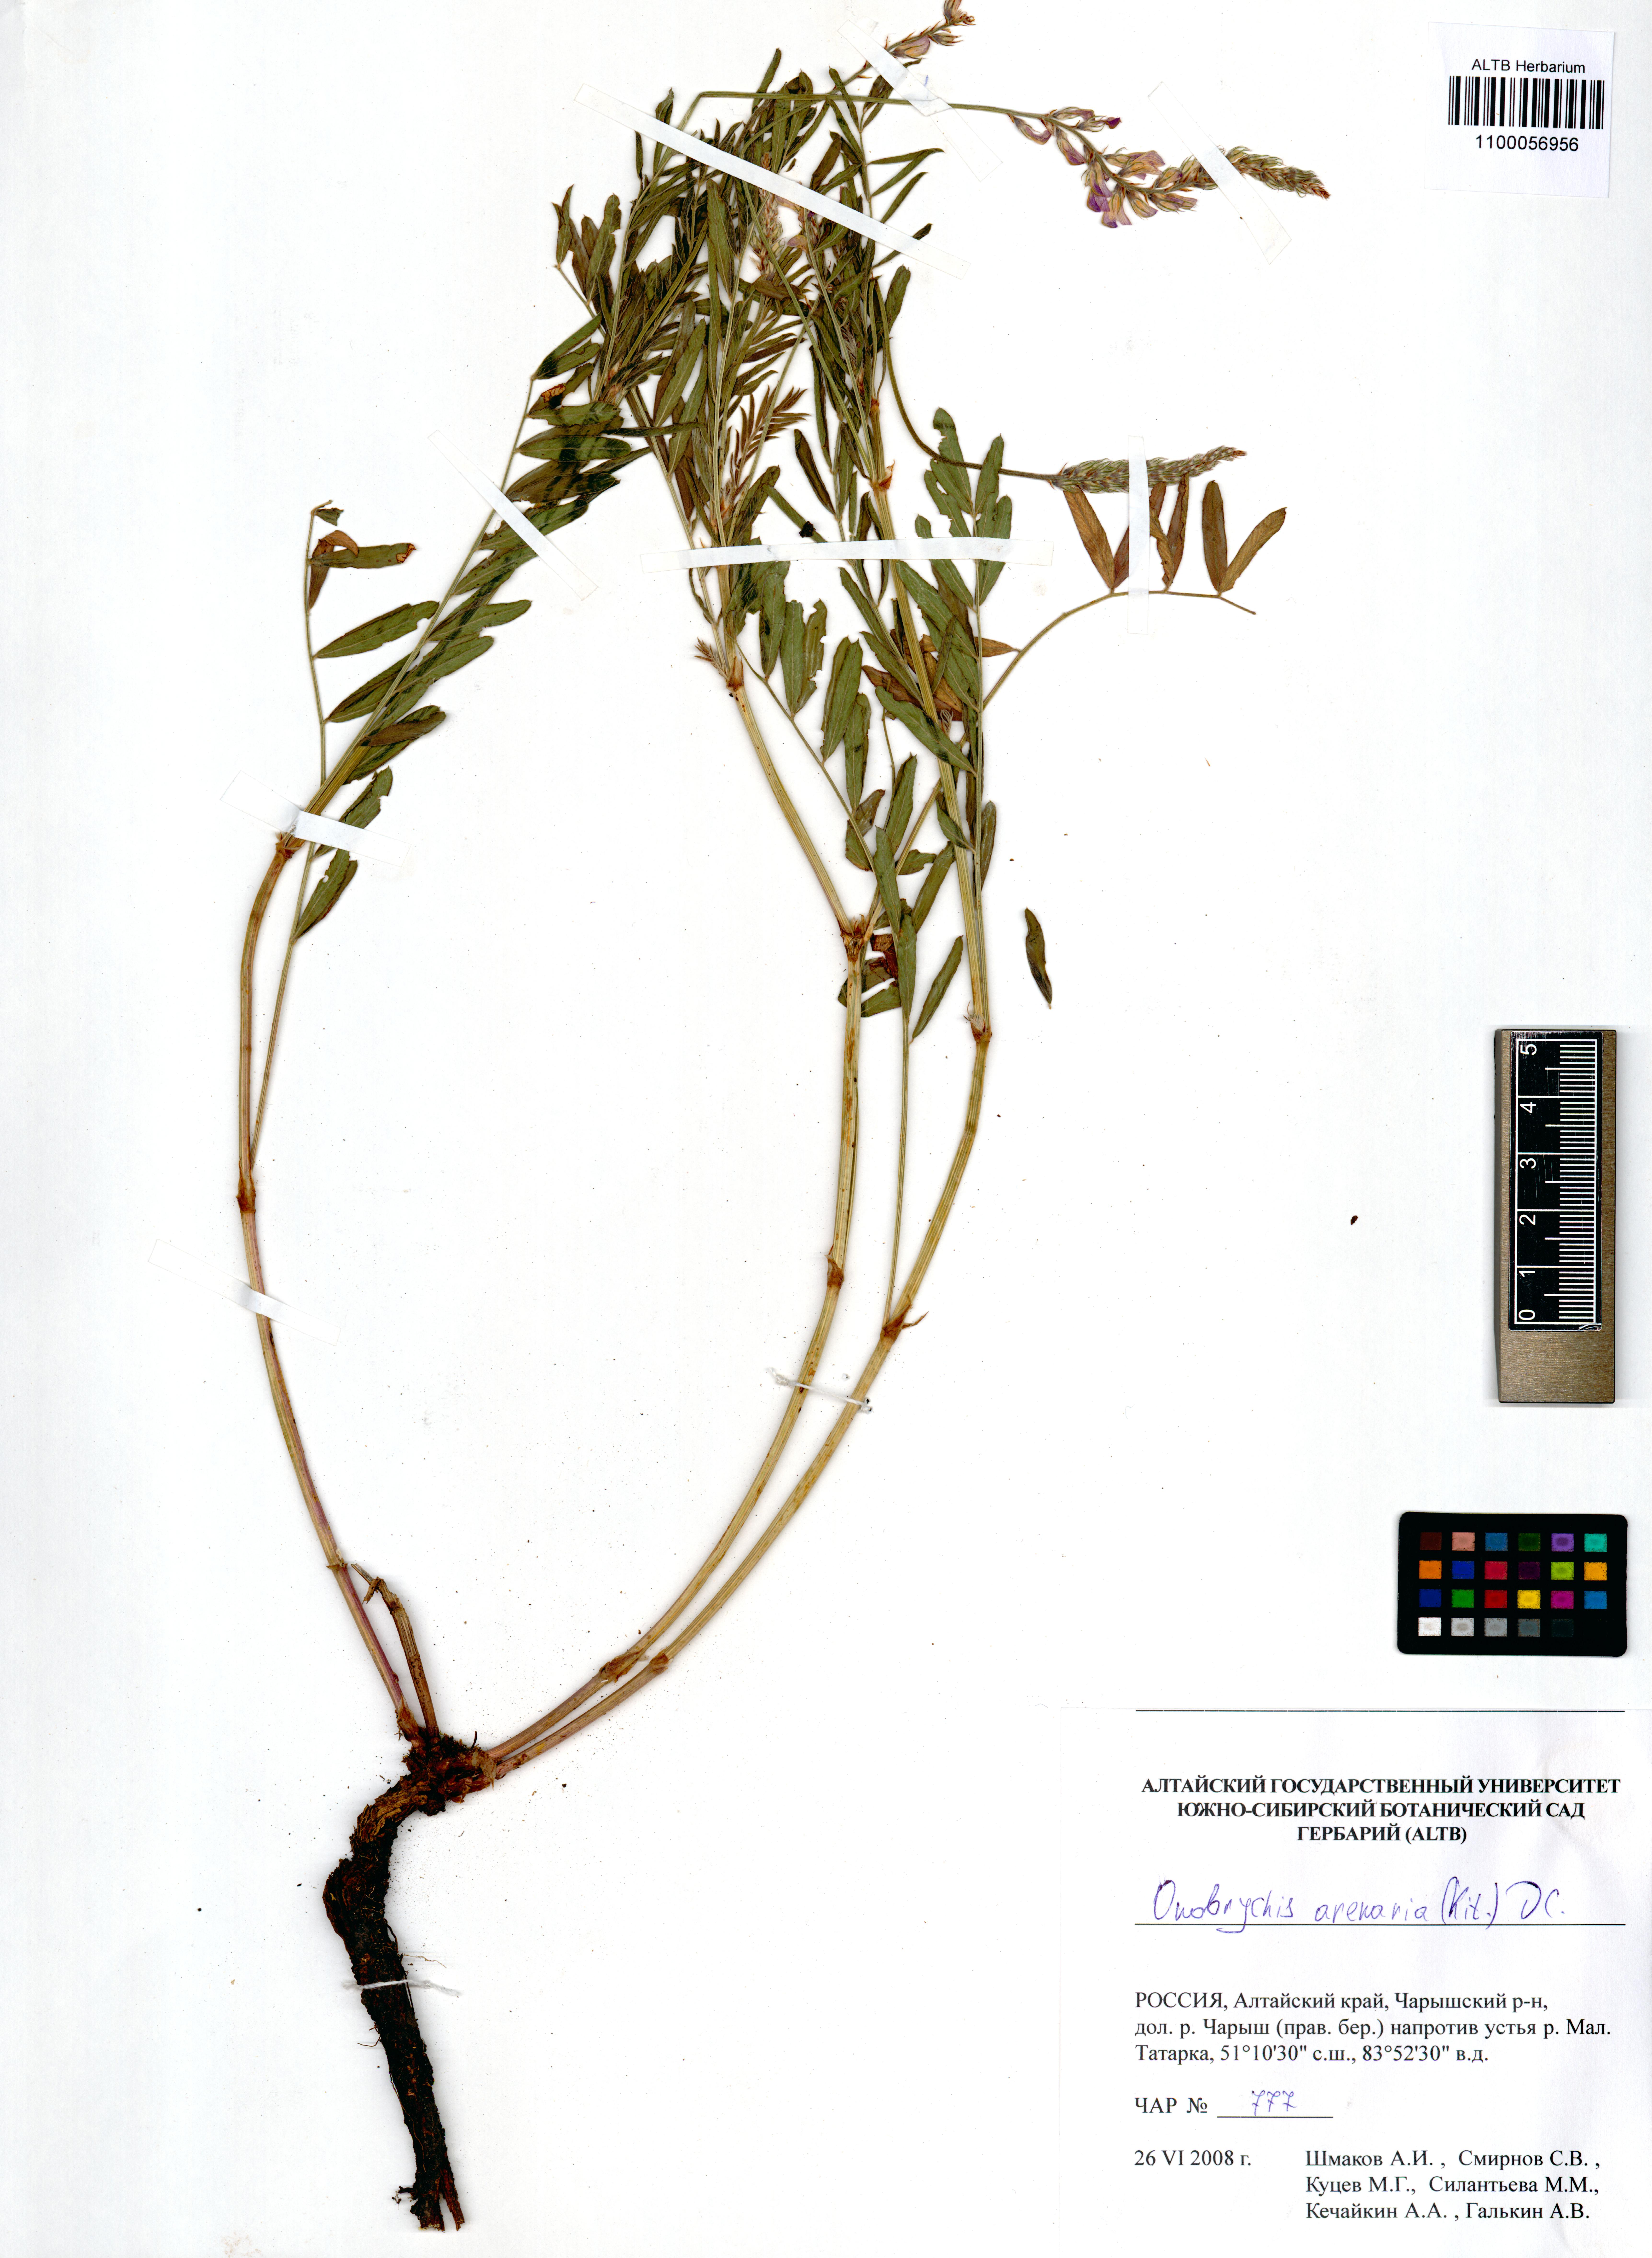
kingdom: Plantae
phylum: Tracheophyta
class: Magnoliopsida
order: Fabales
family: Fabaceae
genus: Onobrychis
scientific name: Onobrychis arenaria
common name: Sand esparcet
